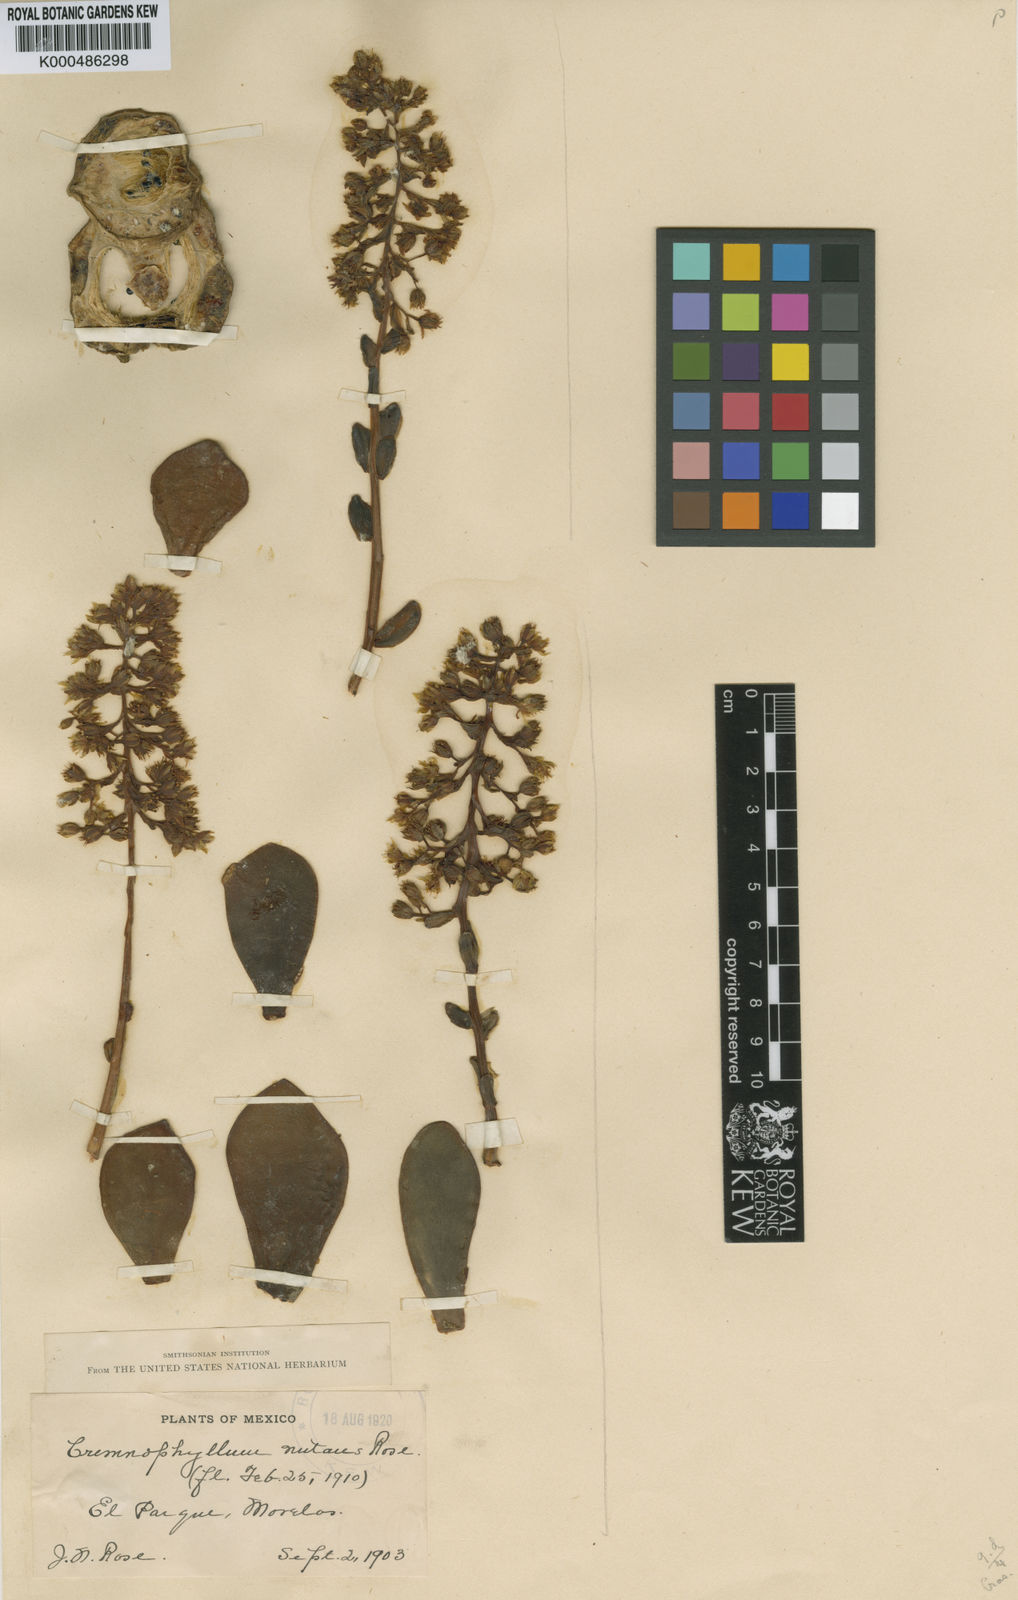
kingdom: Plantae
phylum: Tracheophyta
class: Magnoliopsida
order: Saxifragales
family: Crassulaceae
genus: Cremnophila
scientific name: Cremnophila nutans
